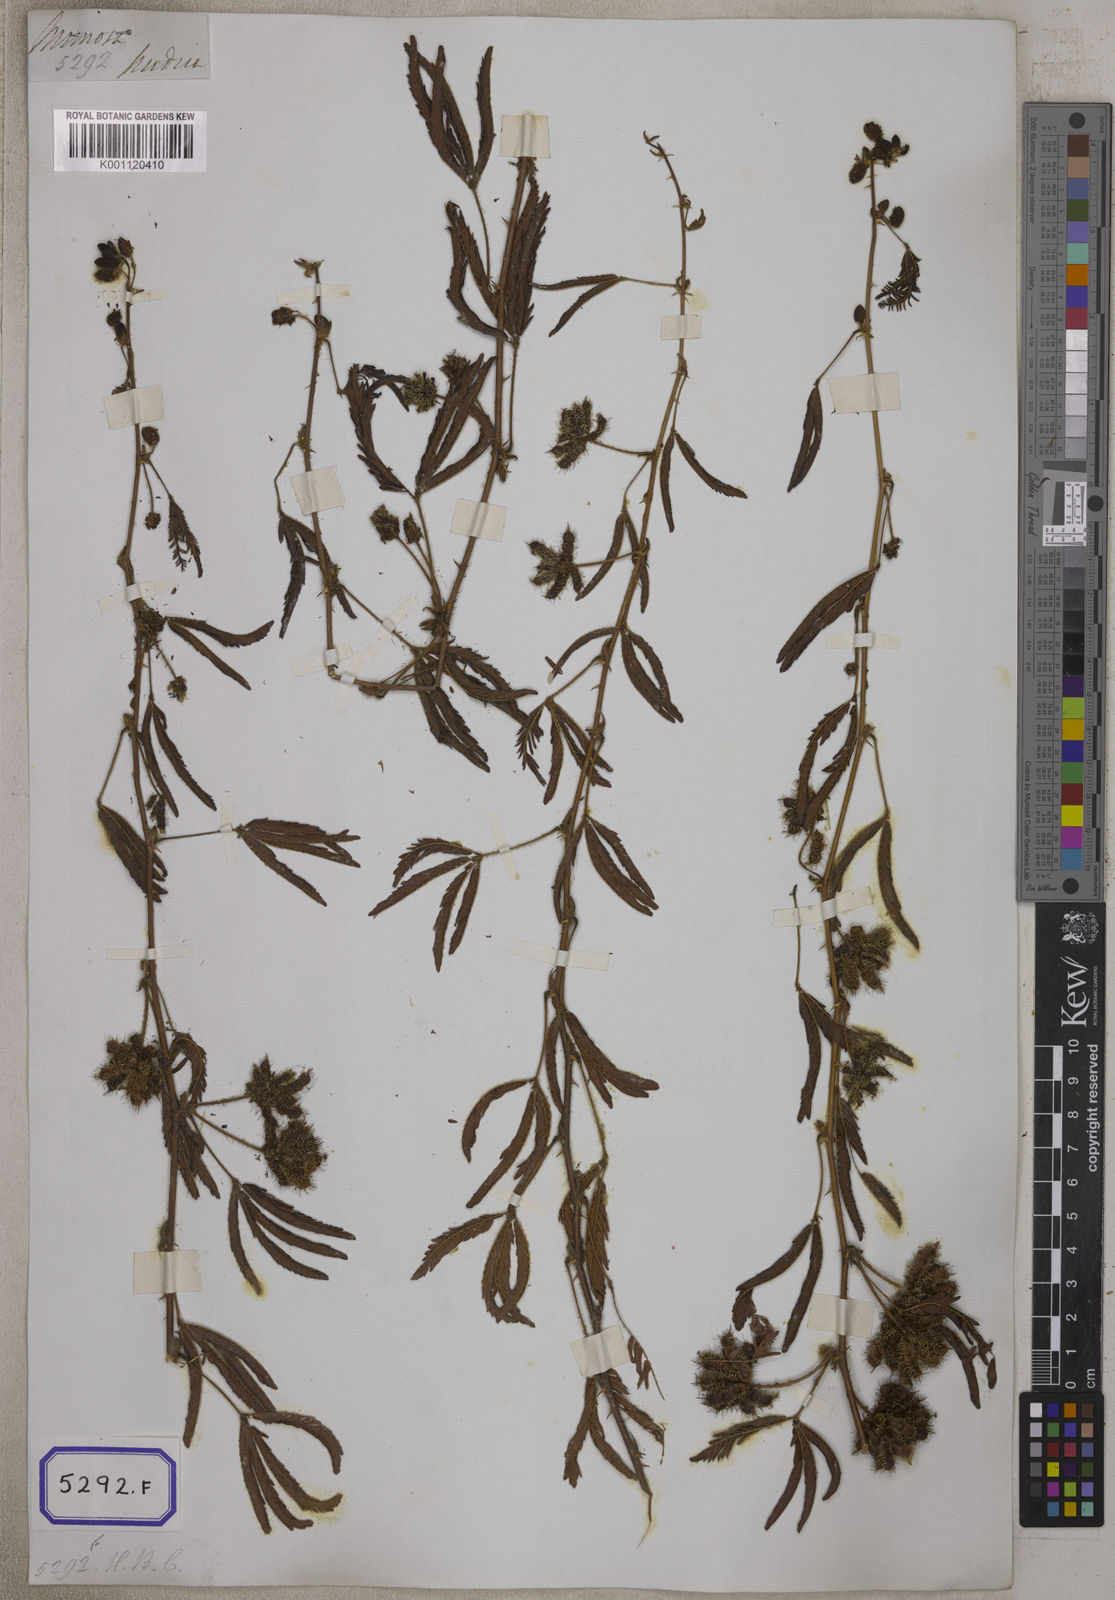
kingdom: Plantae
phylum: Tracheophyta
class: Magnoliopsida
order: Fabales
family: Fabaceae
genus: Mimosa
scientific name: Mimosa pudica
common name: Sensitive plant
